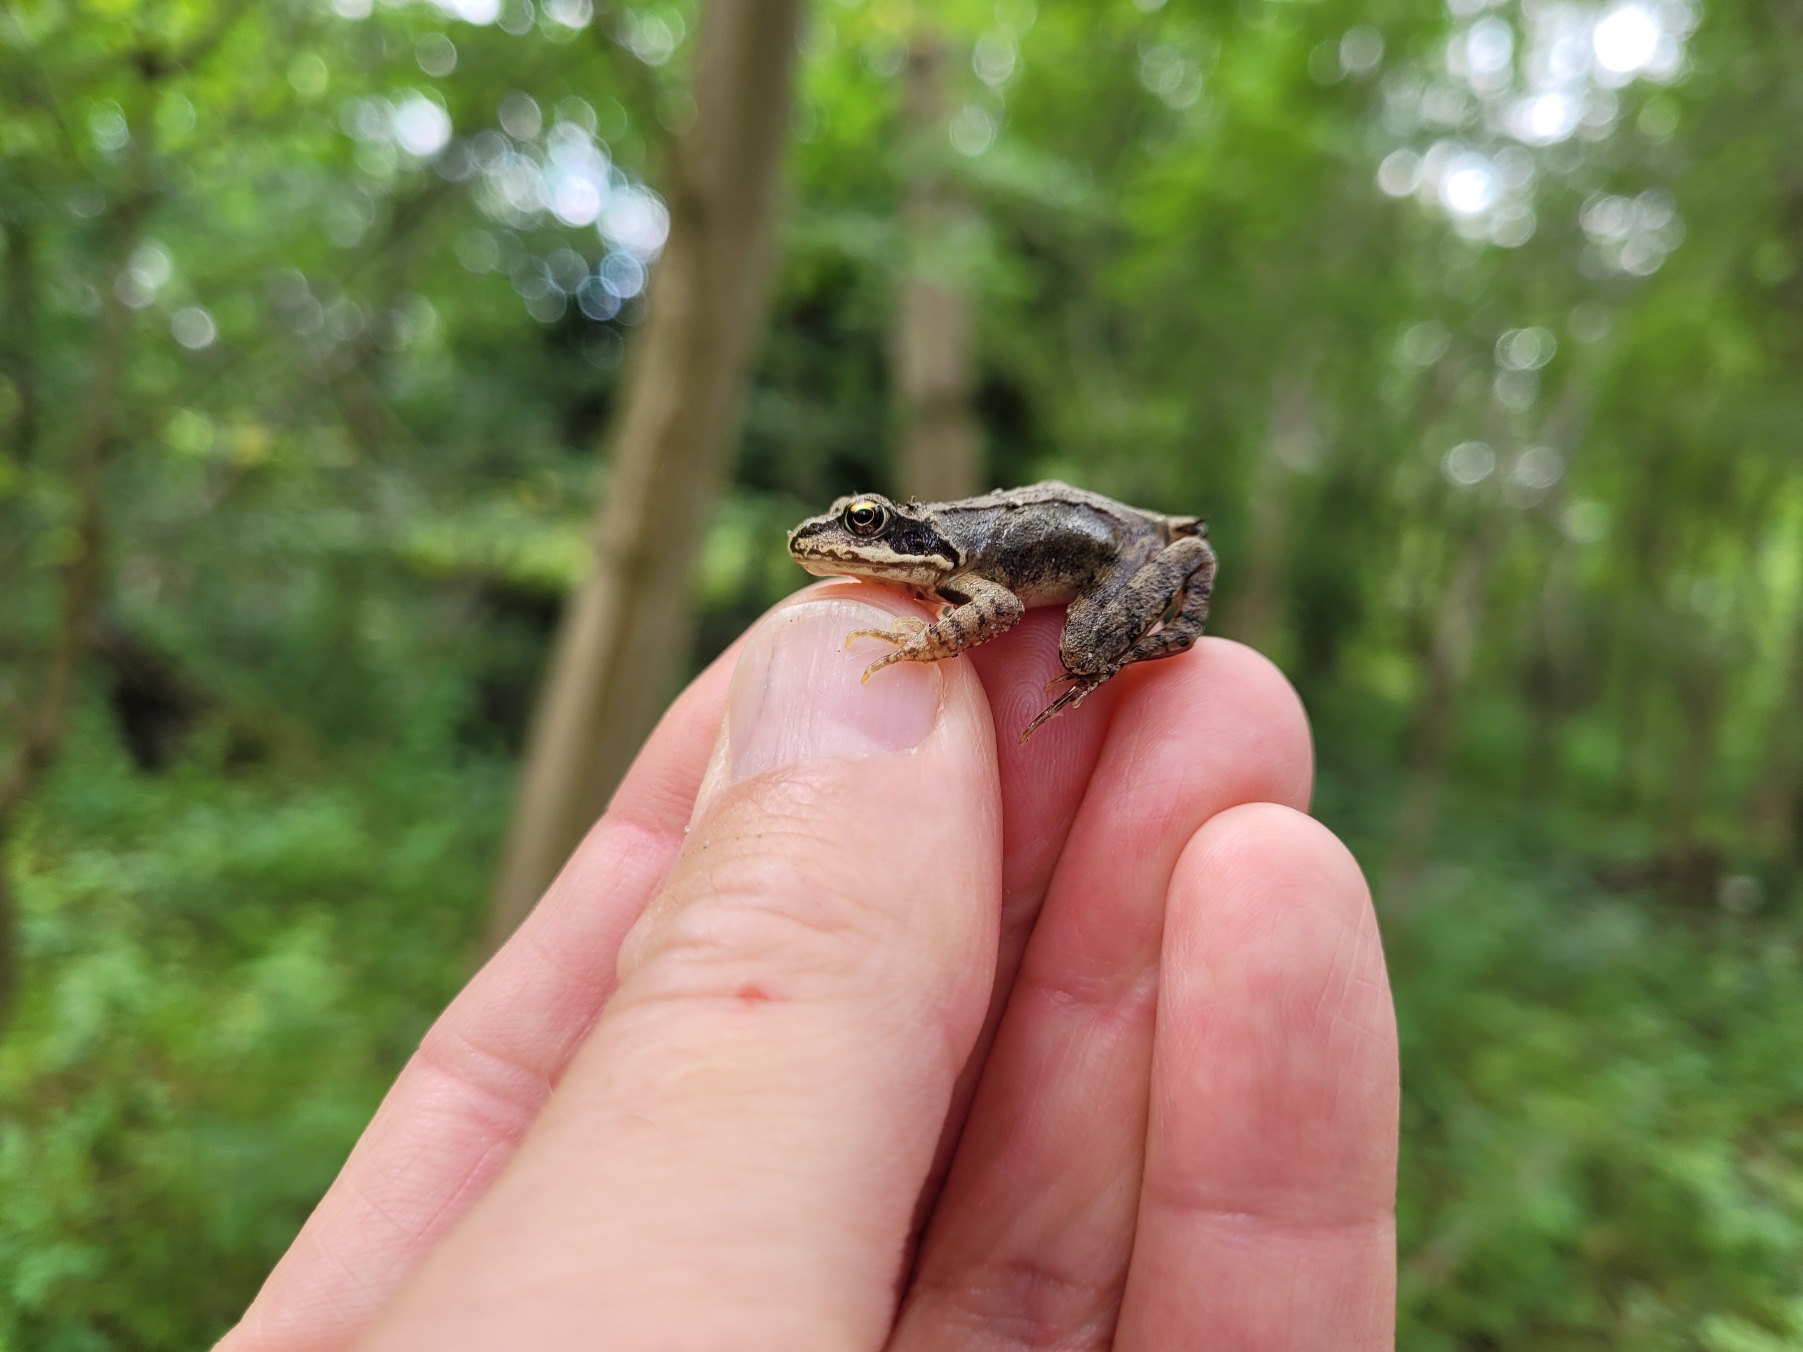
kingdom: Animalia
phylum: Chordata
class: Amphibia
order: Anura
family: Ranidae
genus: Rana
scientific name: Rana temporaria
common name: Butsnudet frø
